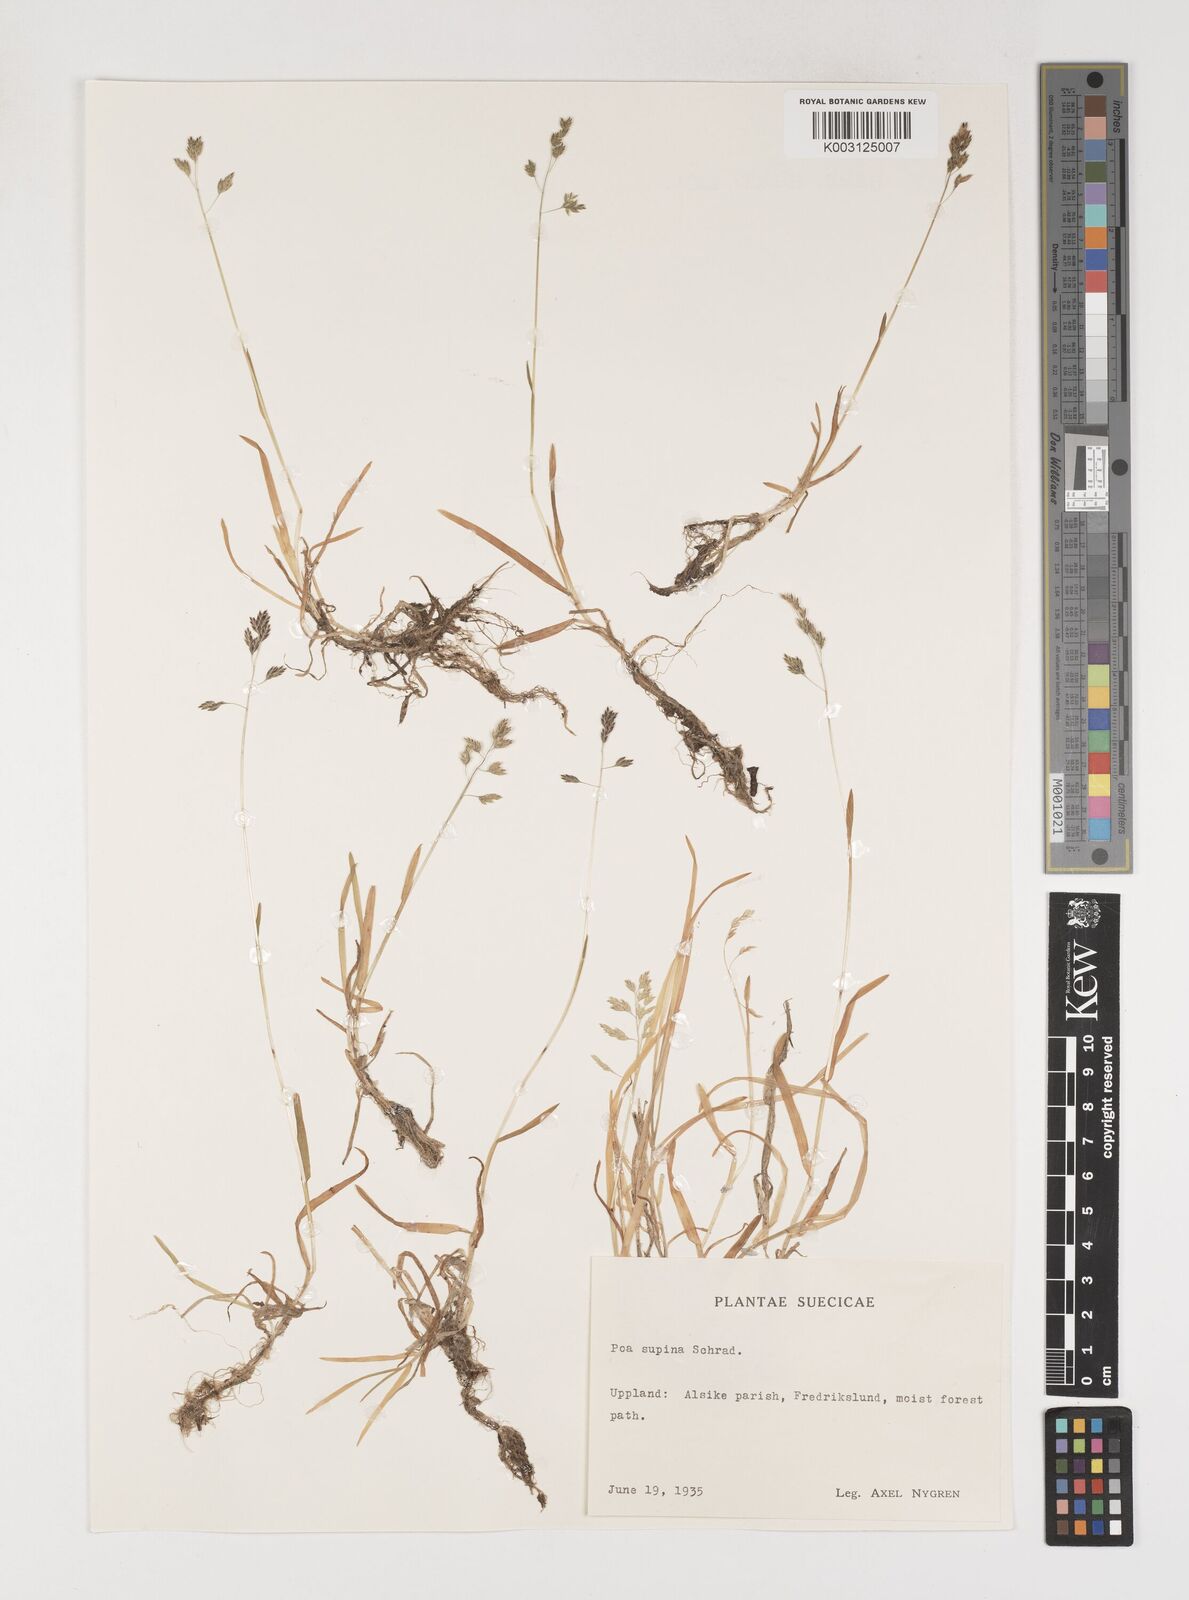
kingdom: Plantae
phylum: Tracheophyta
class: Liliopsida
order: Poales
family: Poaceae
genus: Poa
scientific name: Poa supina
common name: Supina bluegrass
